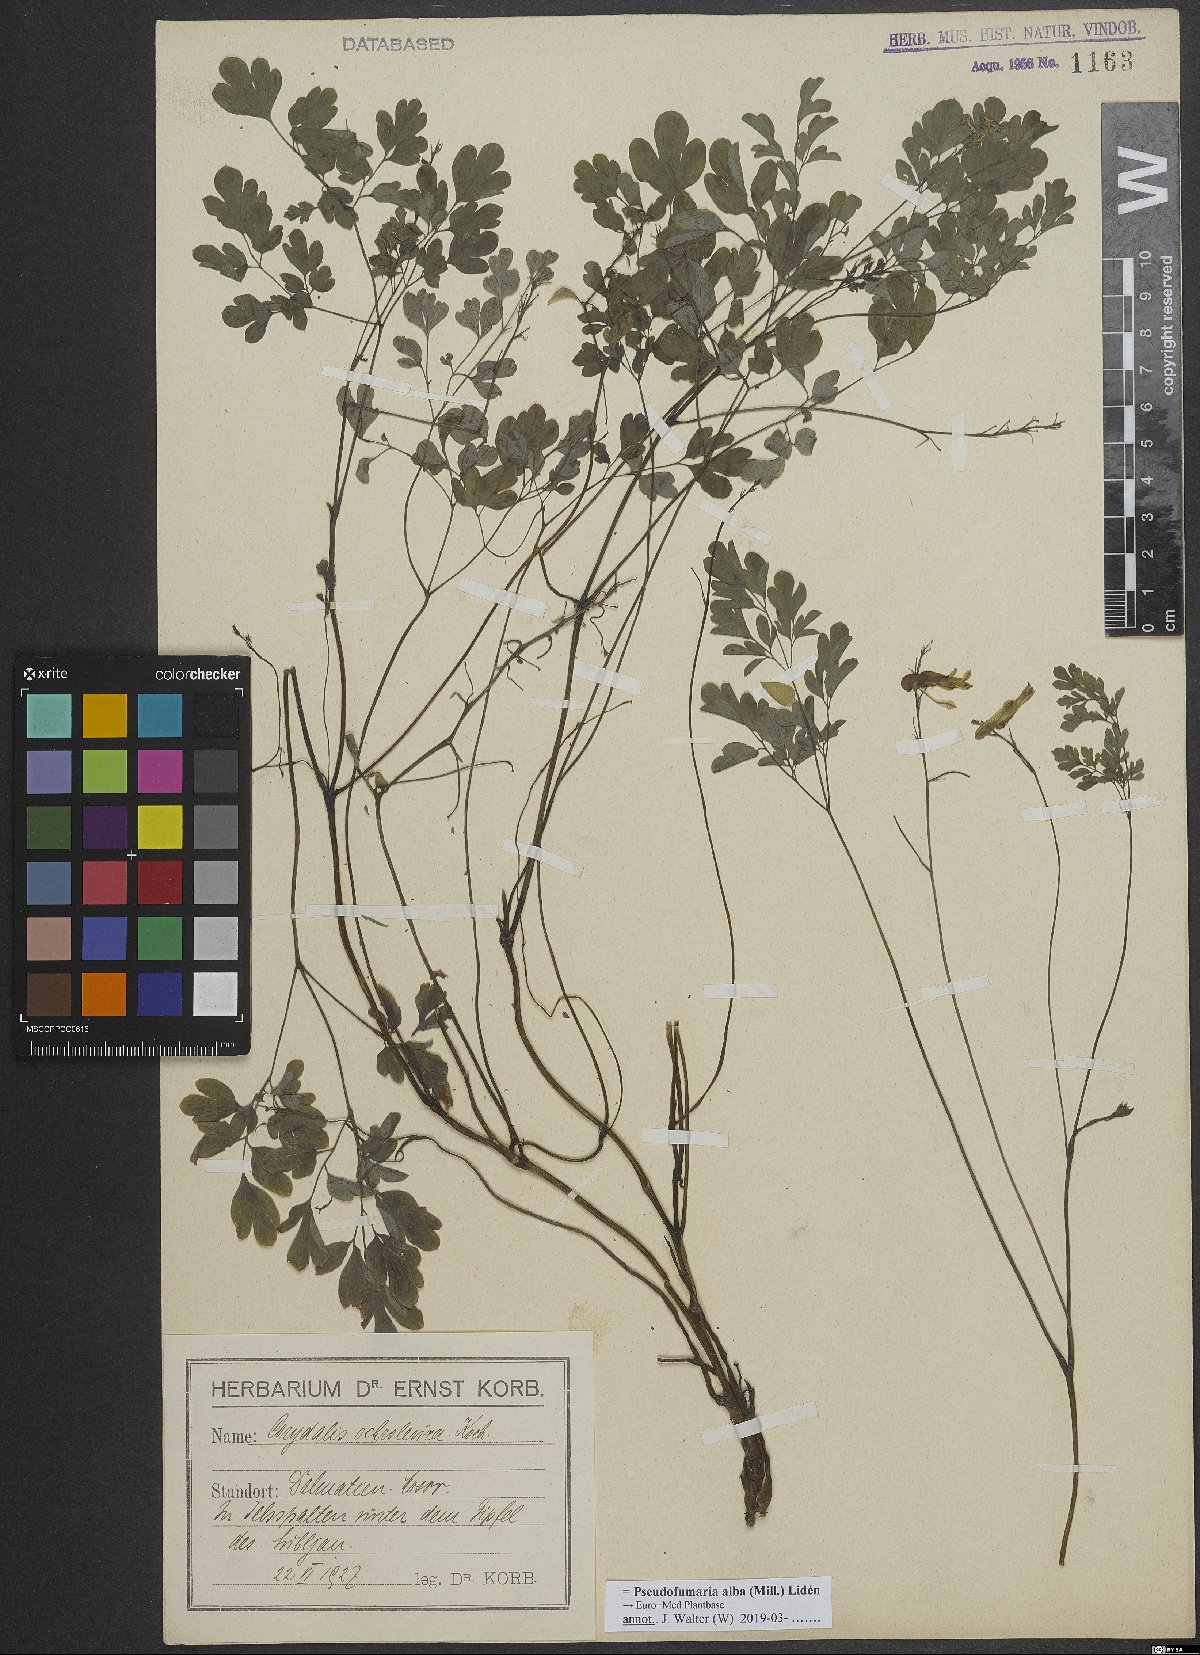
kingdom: Plantae
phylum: Tracheophyta
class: Magnoliopsida
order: Ranunculales
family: Papaveraceae
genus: Pseudofumaria
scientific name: Pseudofumaria alba
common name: Pale corydalis
